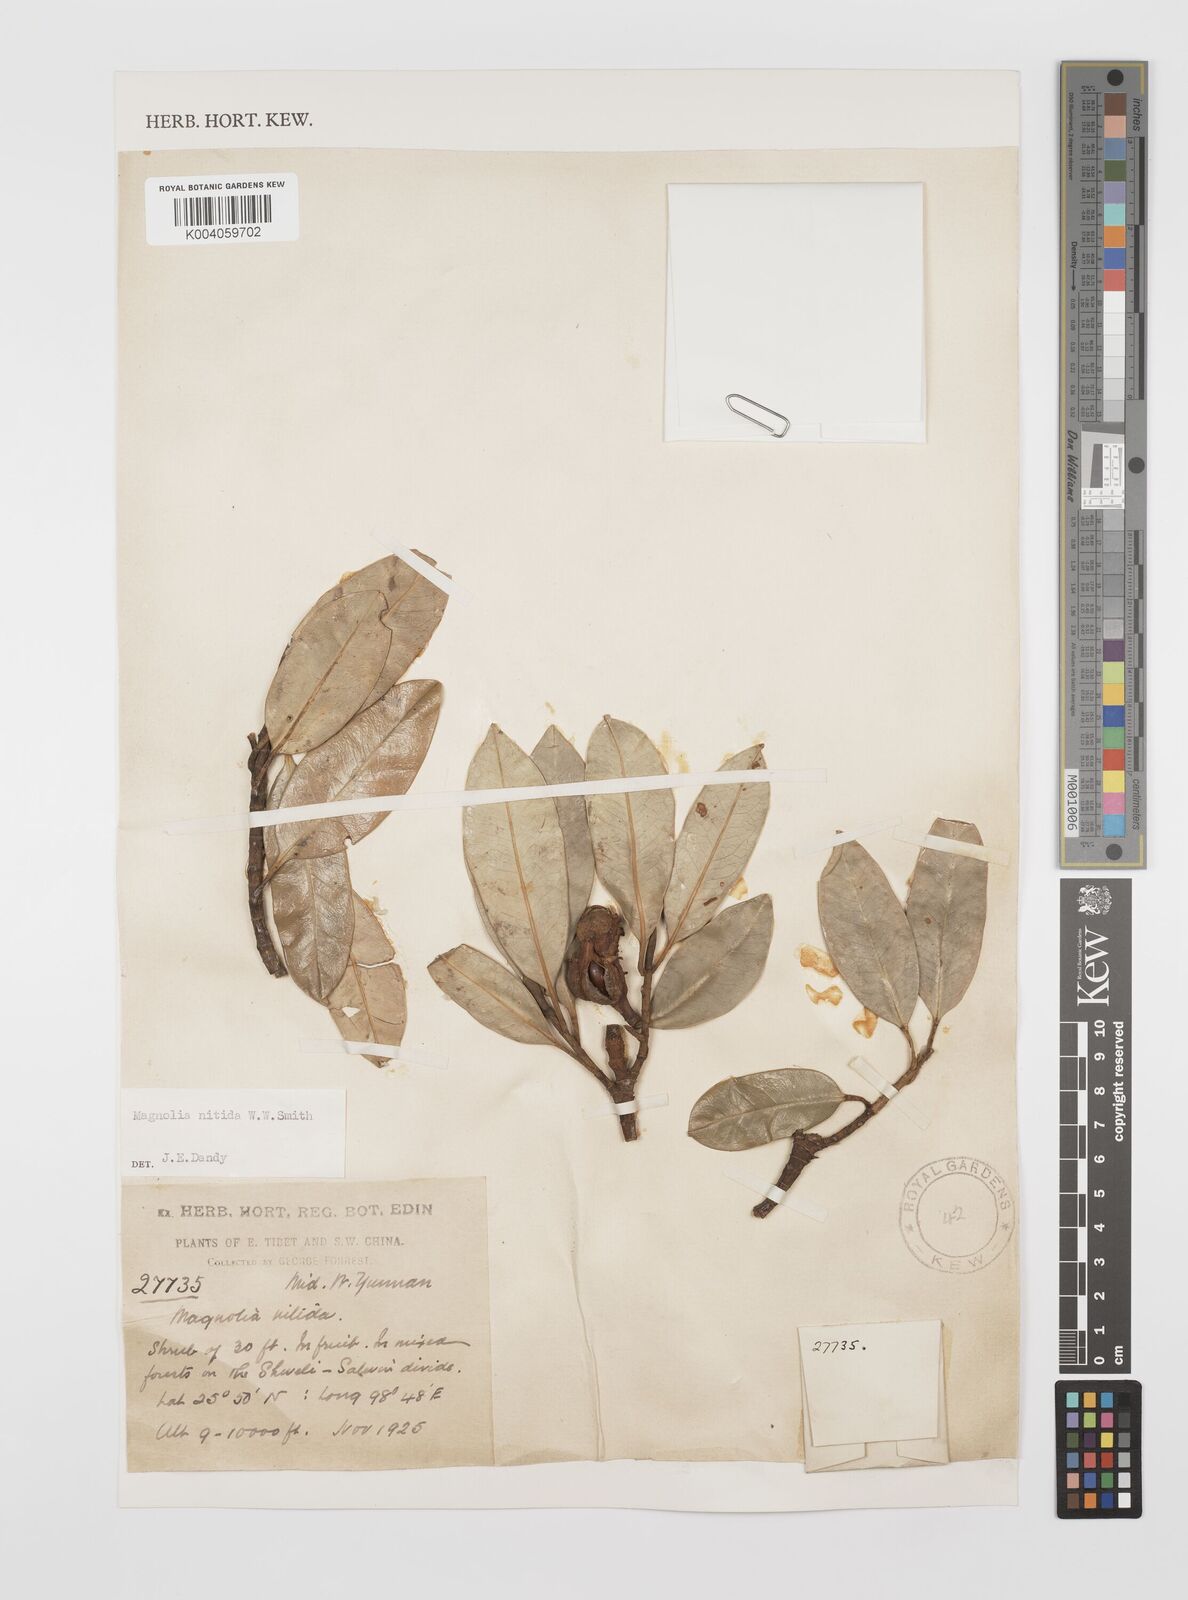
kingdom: Plantae
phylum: Tracheophyta
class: Magnoliopsida
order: Magnoliales
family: Magnoliaceae
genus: Magnolia
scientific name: Magnolia nitida
